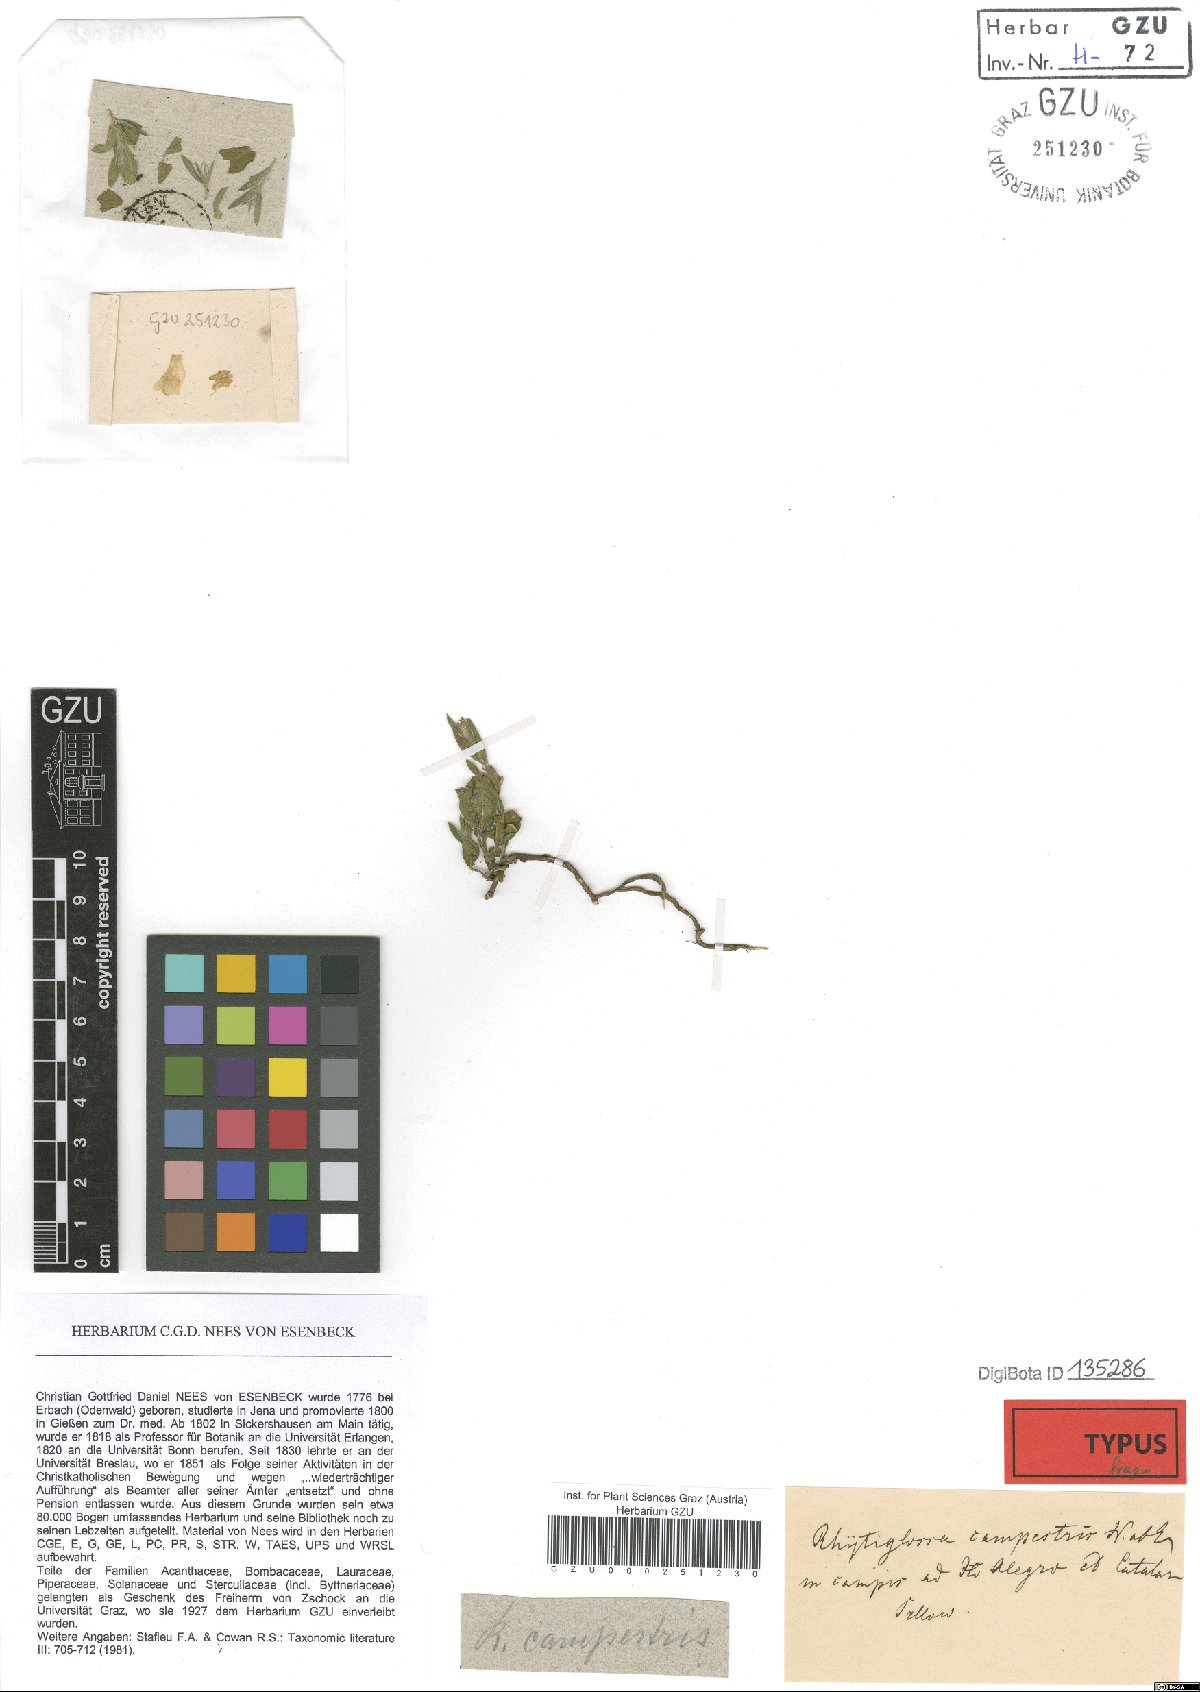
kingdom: Plantae
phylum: Tracheophyta
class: Magnoliopsida
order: Lamiales
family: Acanthaceae
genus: Justicia
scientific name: Justicia axillaris
